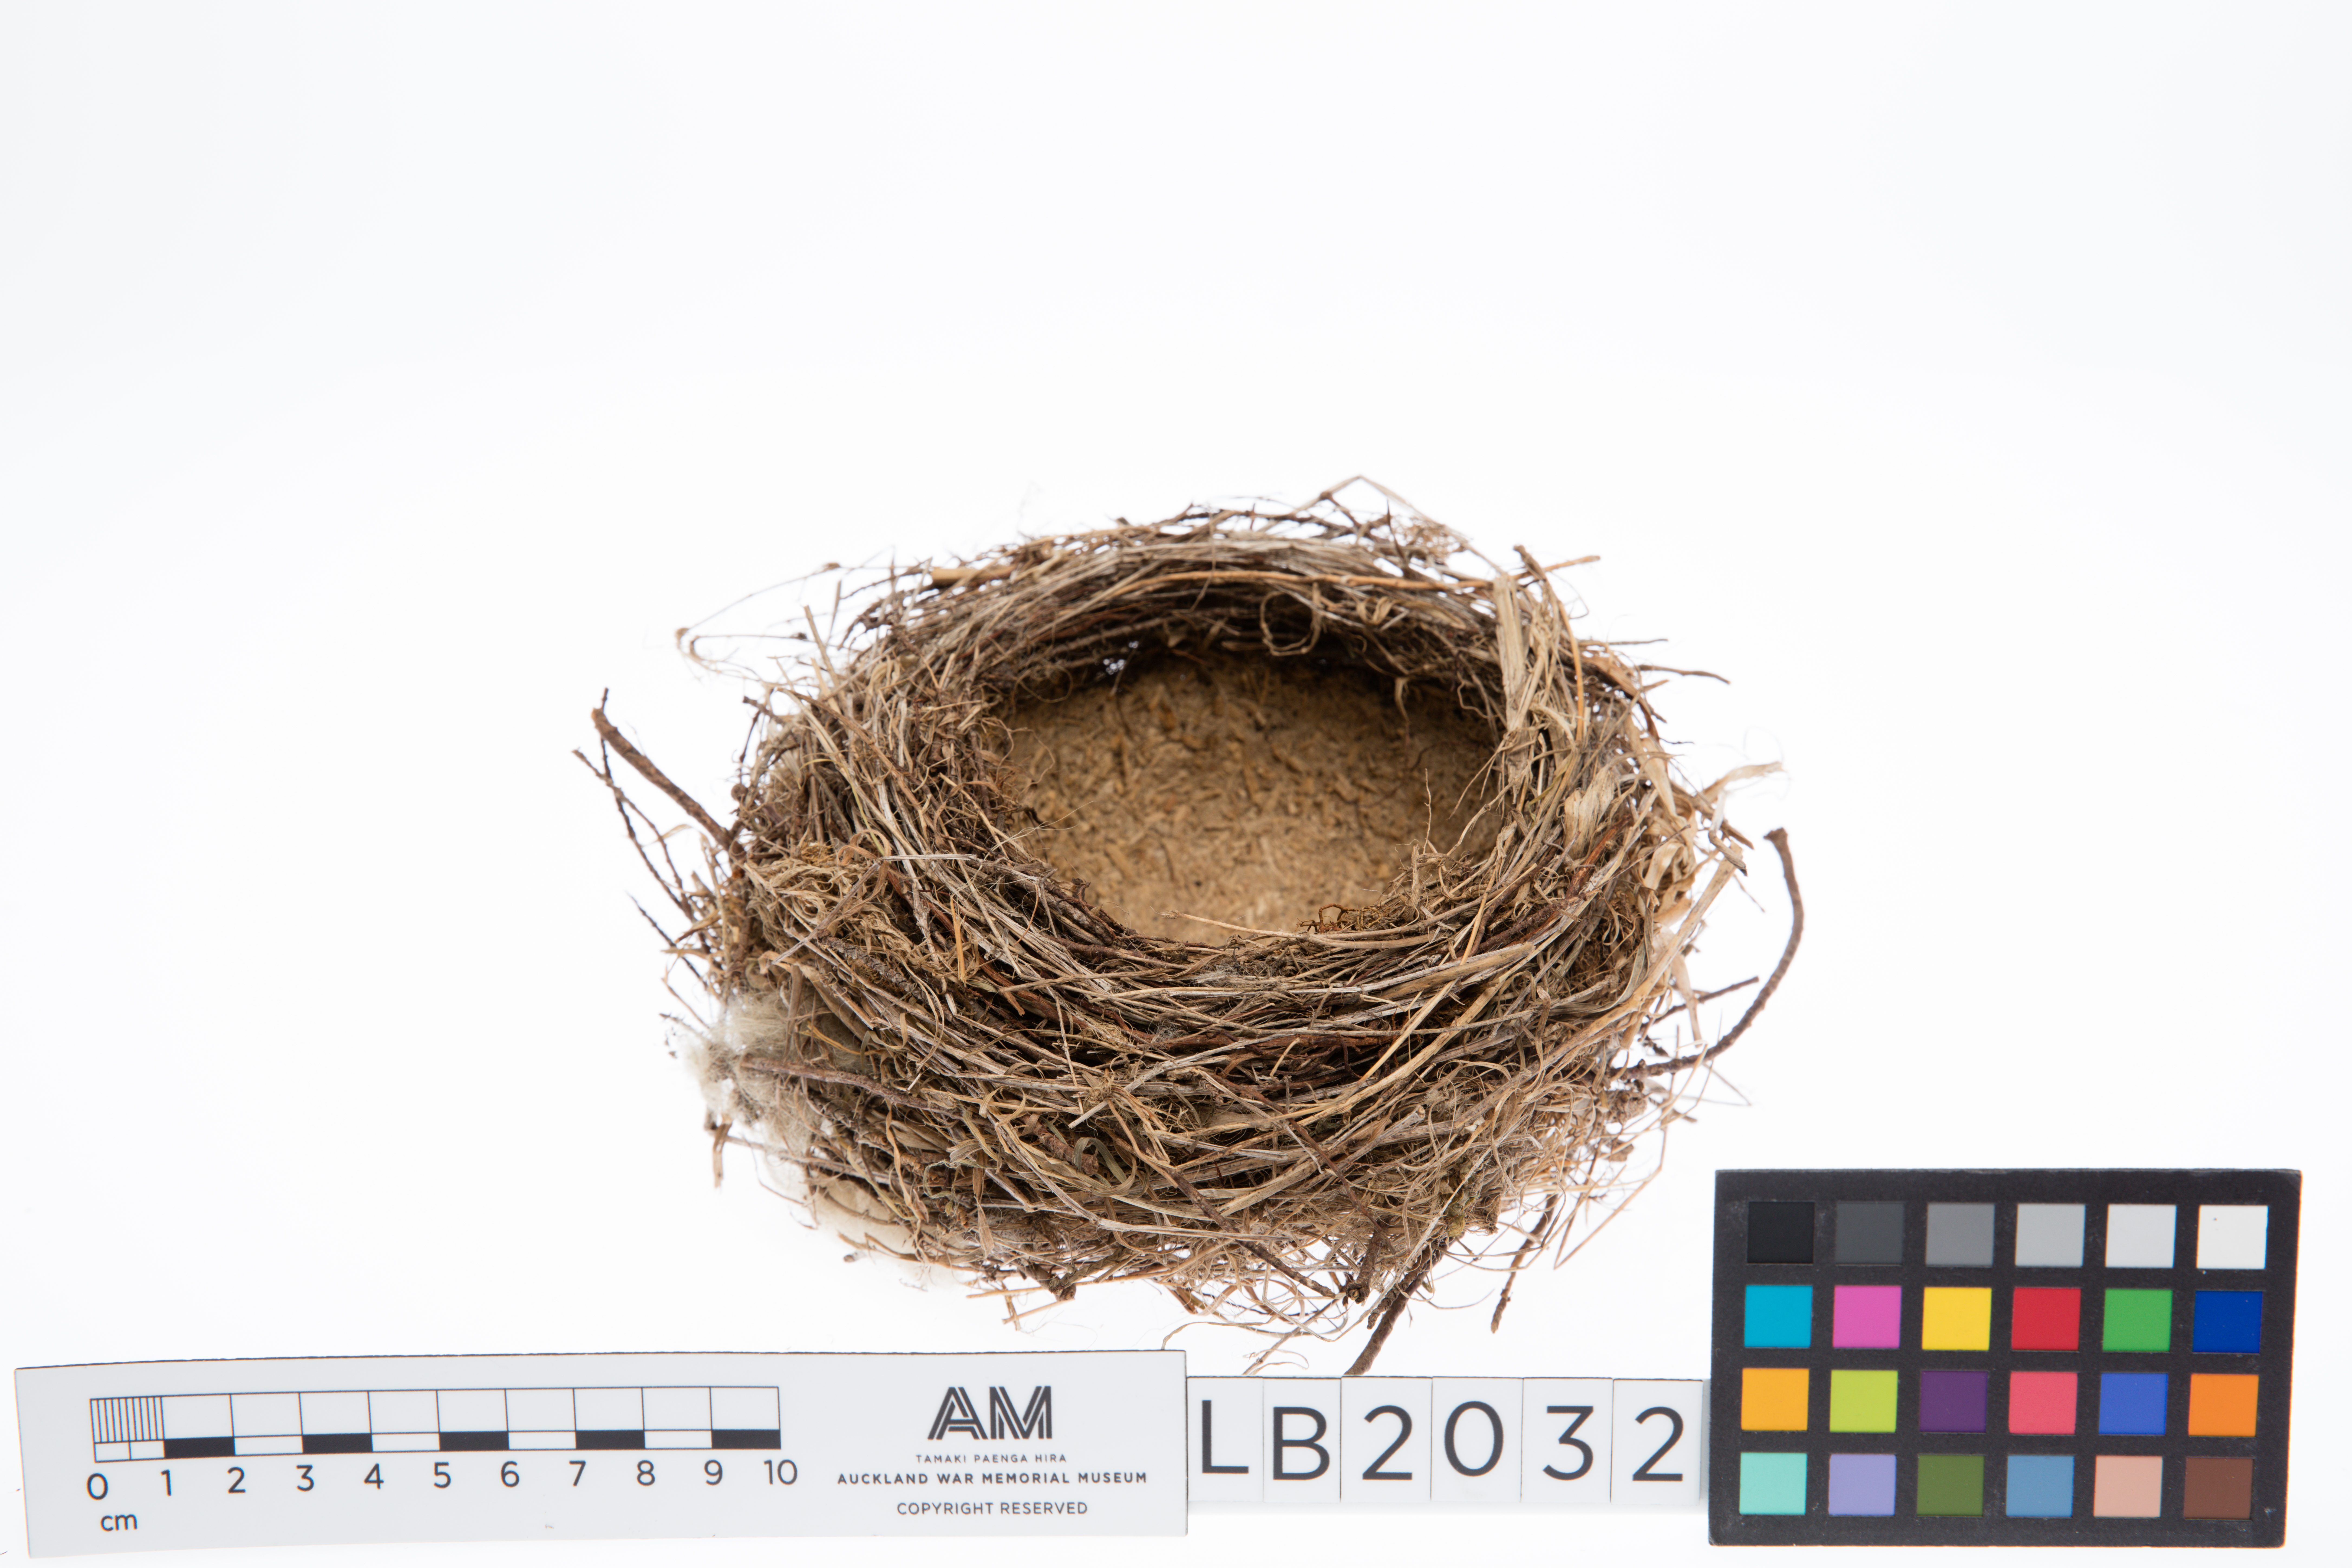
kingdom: Animalia
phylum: Chordata
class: Aves
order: Passeriformes
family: Turdidae
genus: Turdus
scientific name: Turdus philomelos
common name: Song thrush
